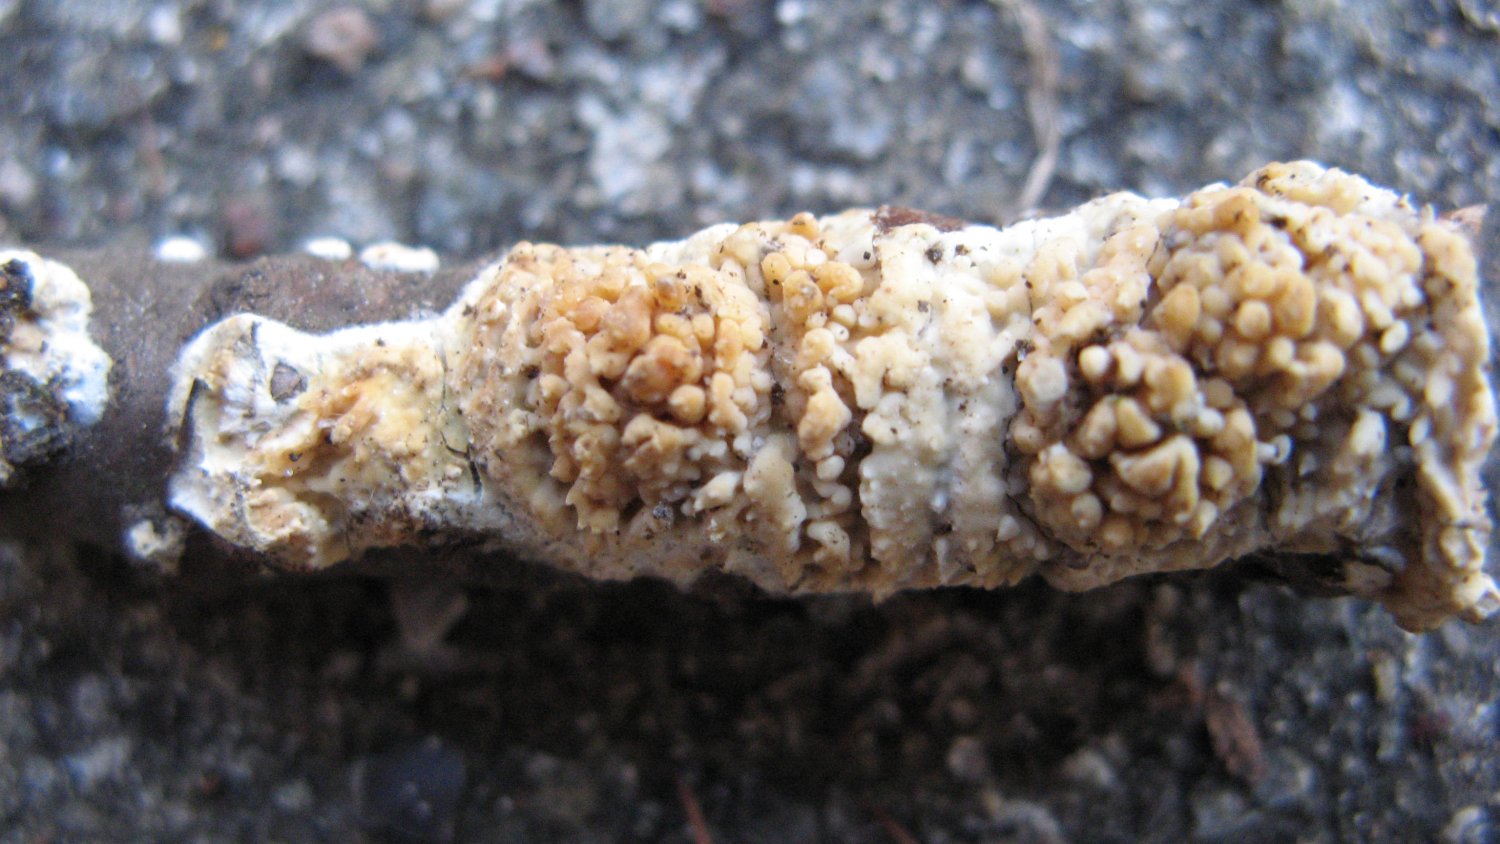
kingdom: Fungi
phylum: Basidiomycota
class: Agaricomycetes
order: Hymenochaetales
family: Schizoporaceae
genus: Xylodon
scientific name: Xylodon radula
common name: grovtandet kalkskind
